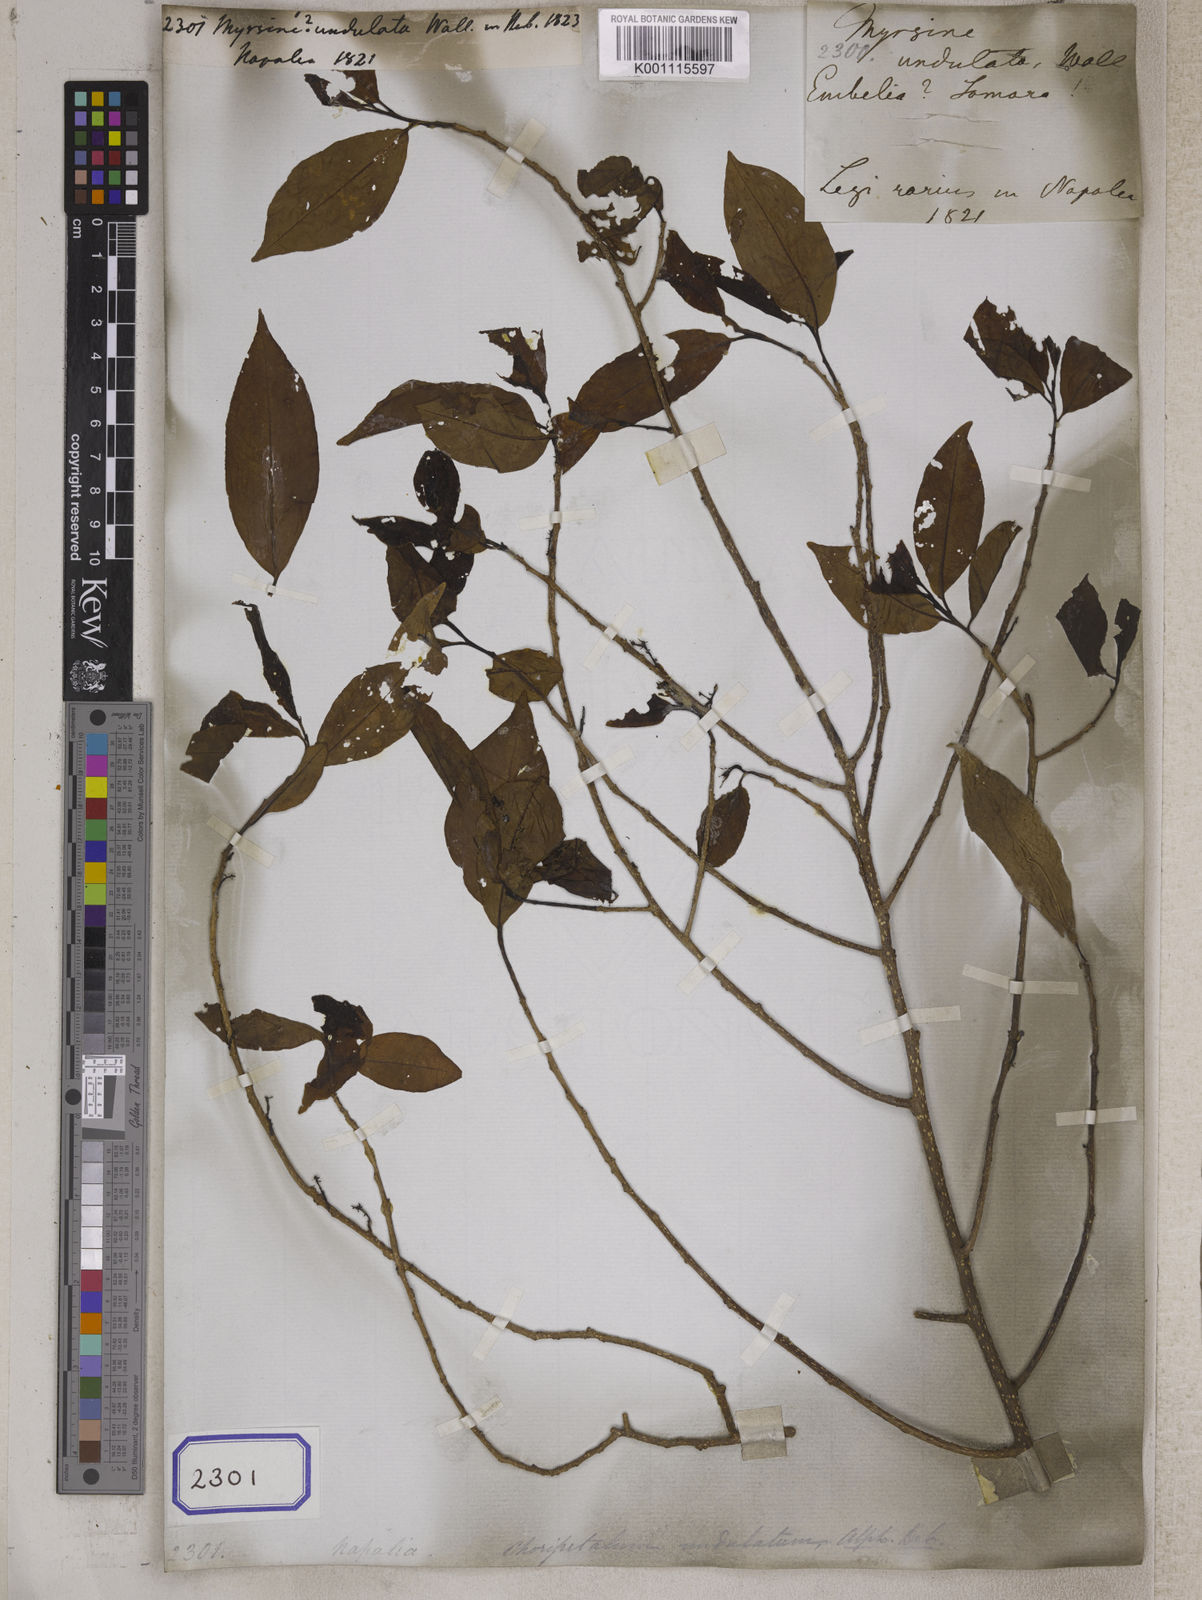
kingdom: Plantae
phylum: Tracheophyta
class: Magnoliopsida
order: Ericales
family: Primulaceae
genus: Embelia
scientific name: Embelia vestita
